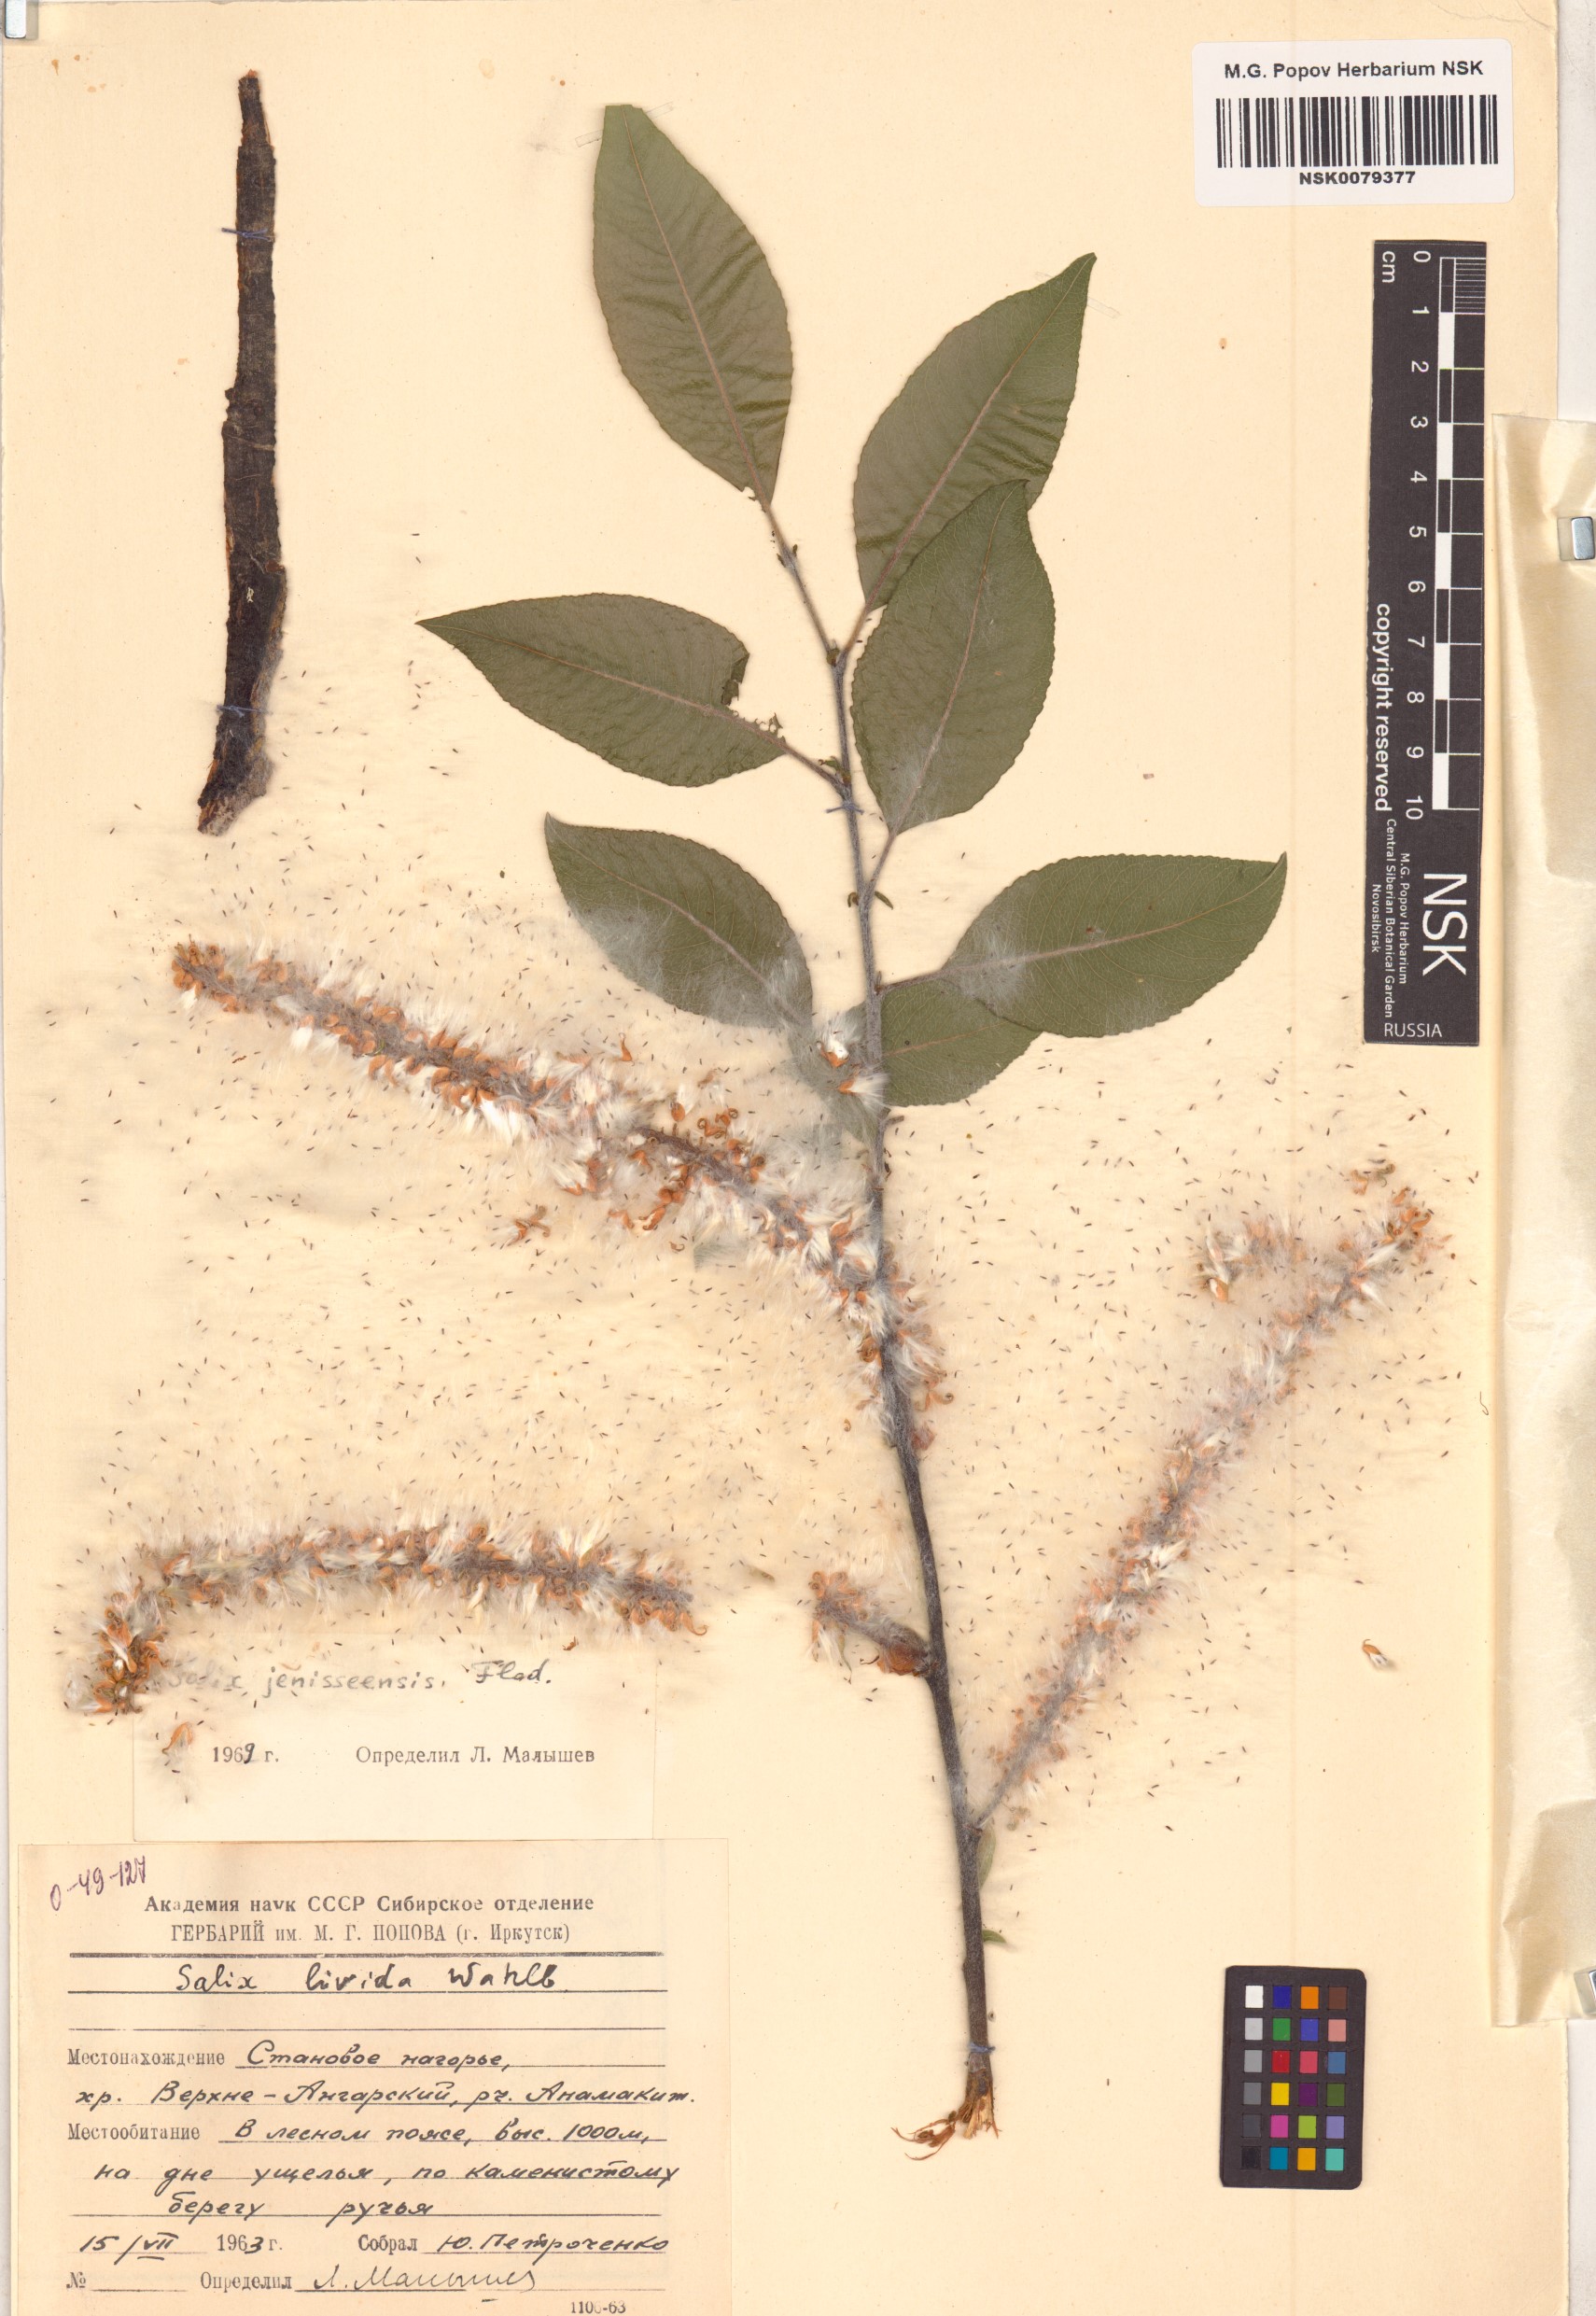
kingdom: Plantae
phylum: Tracheophyta
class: Magnoliopsida
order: Malpighiales
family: Salicaceae
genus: Salix
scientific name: Salix jenisseensis
